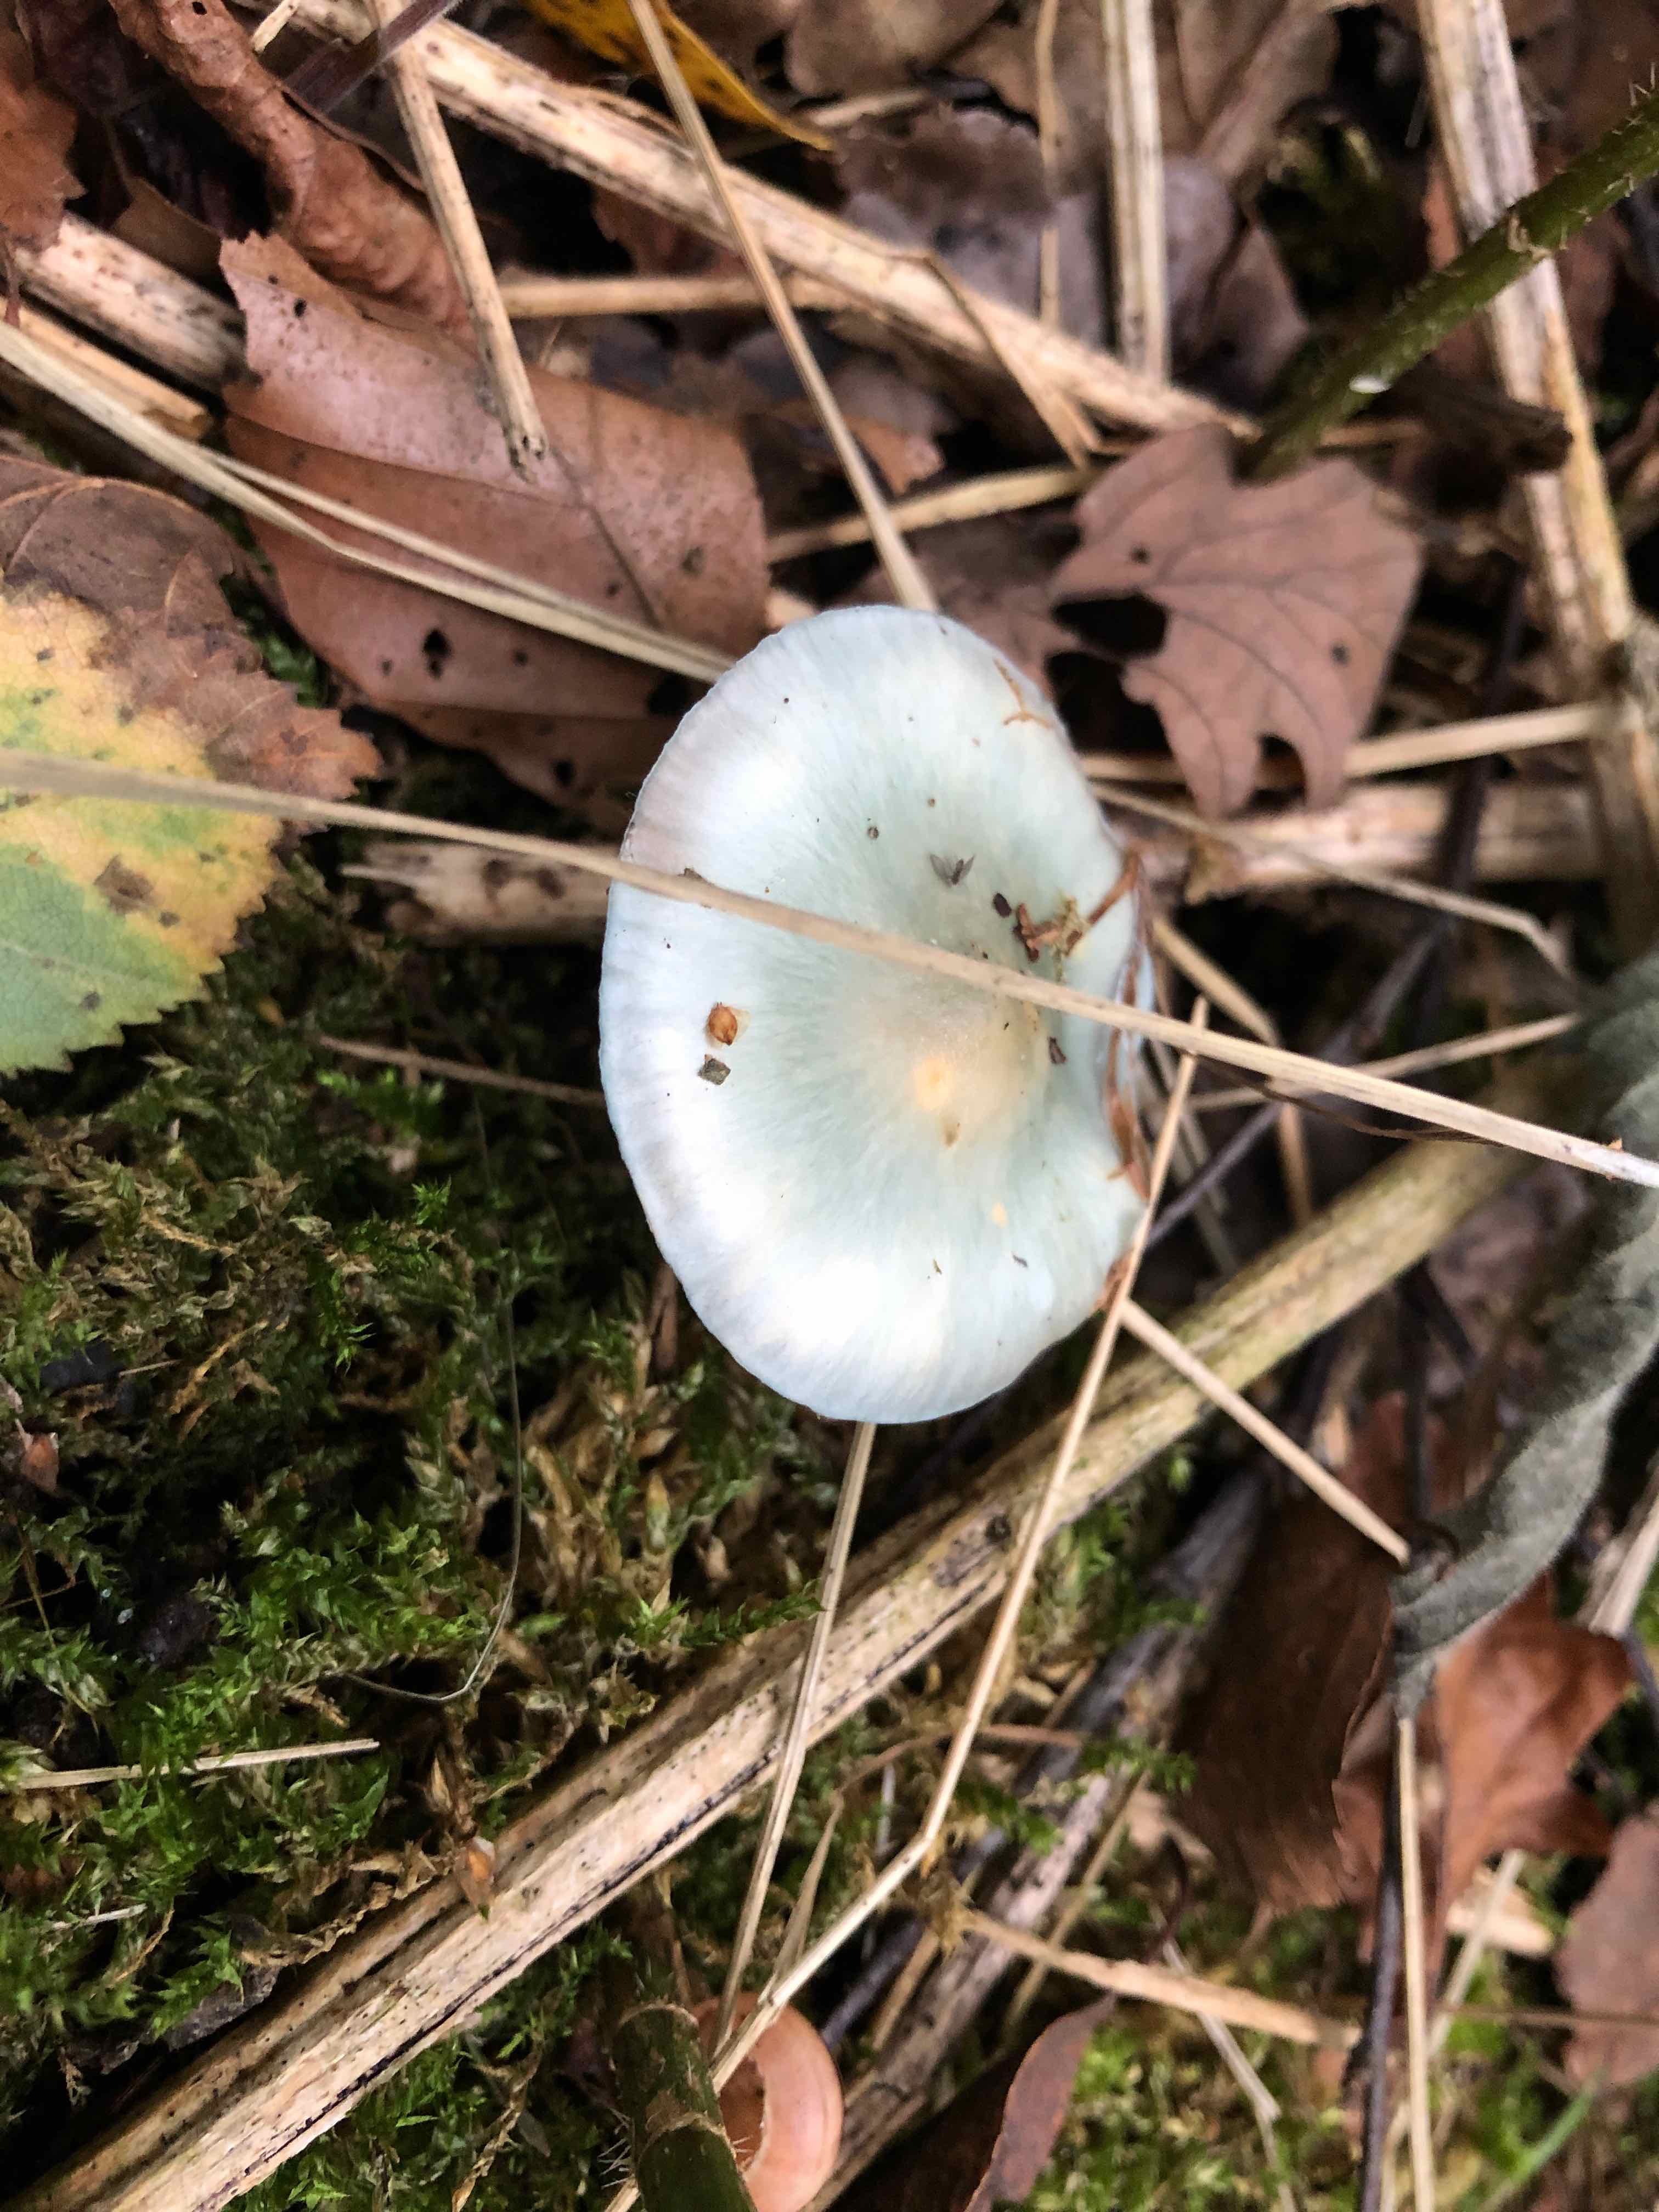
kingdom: Fungi
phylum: Basidiomycota
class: Agaricomycetes
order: Agaricales
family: Strophariaceae
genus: Stropharia
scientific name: Stropharia cyanea
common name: blågrøn bredblad
